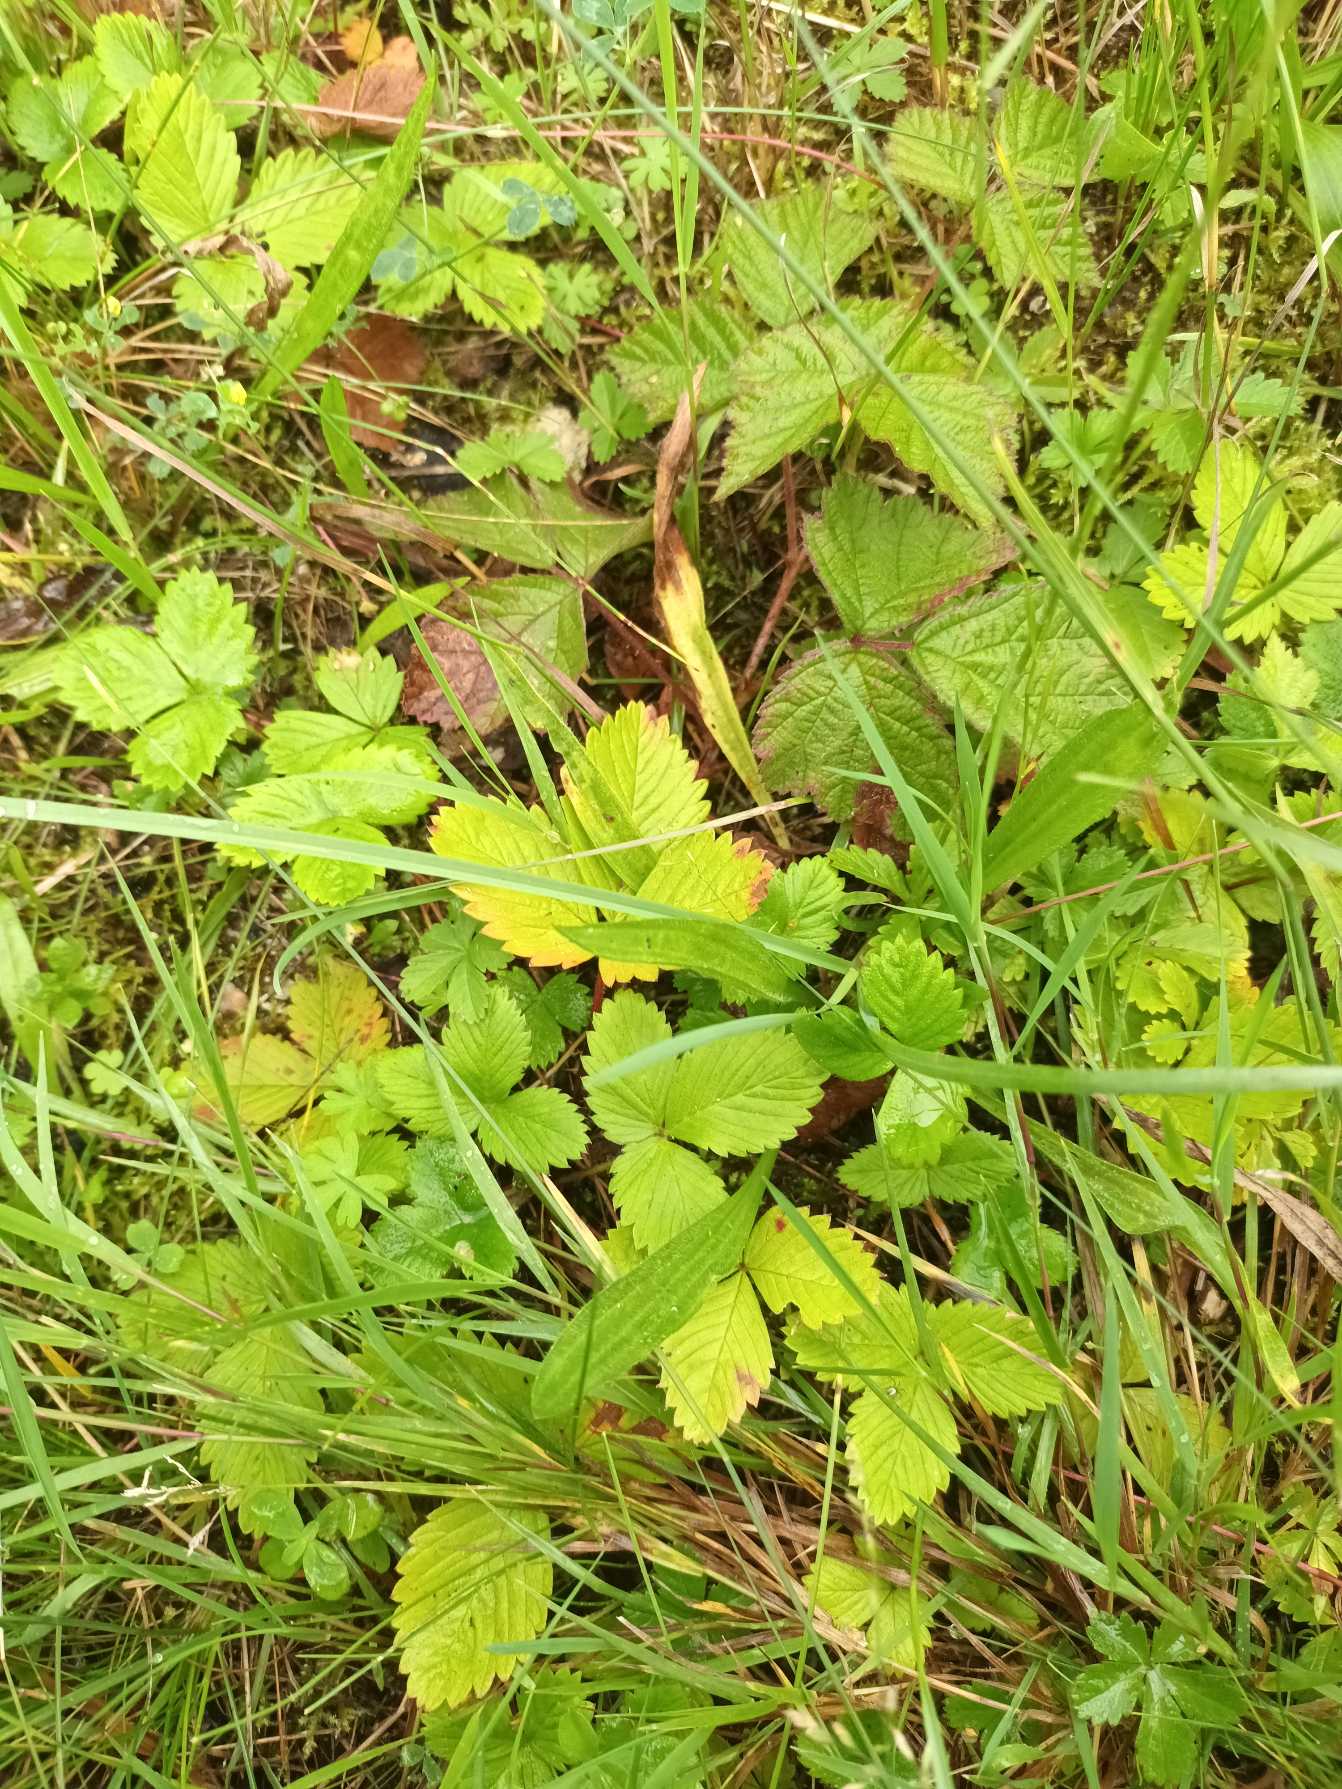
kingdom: Plantae
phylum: Tracheophyta
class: Magnoliopsida
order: Rosales
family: Rosaceae
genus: Fragaria
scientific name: Fragaria vesca
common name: Skov-jordbær
